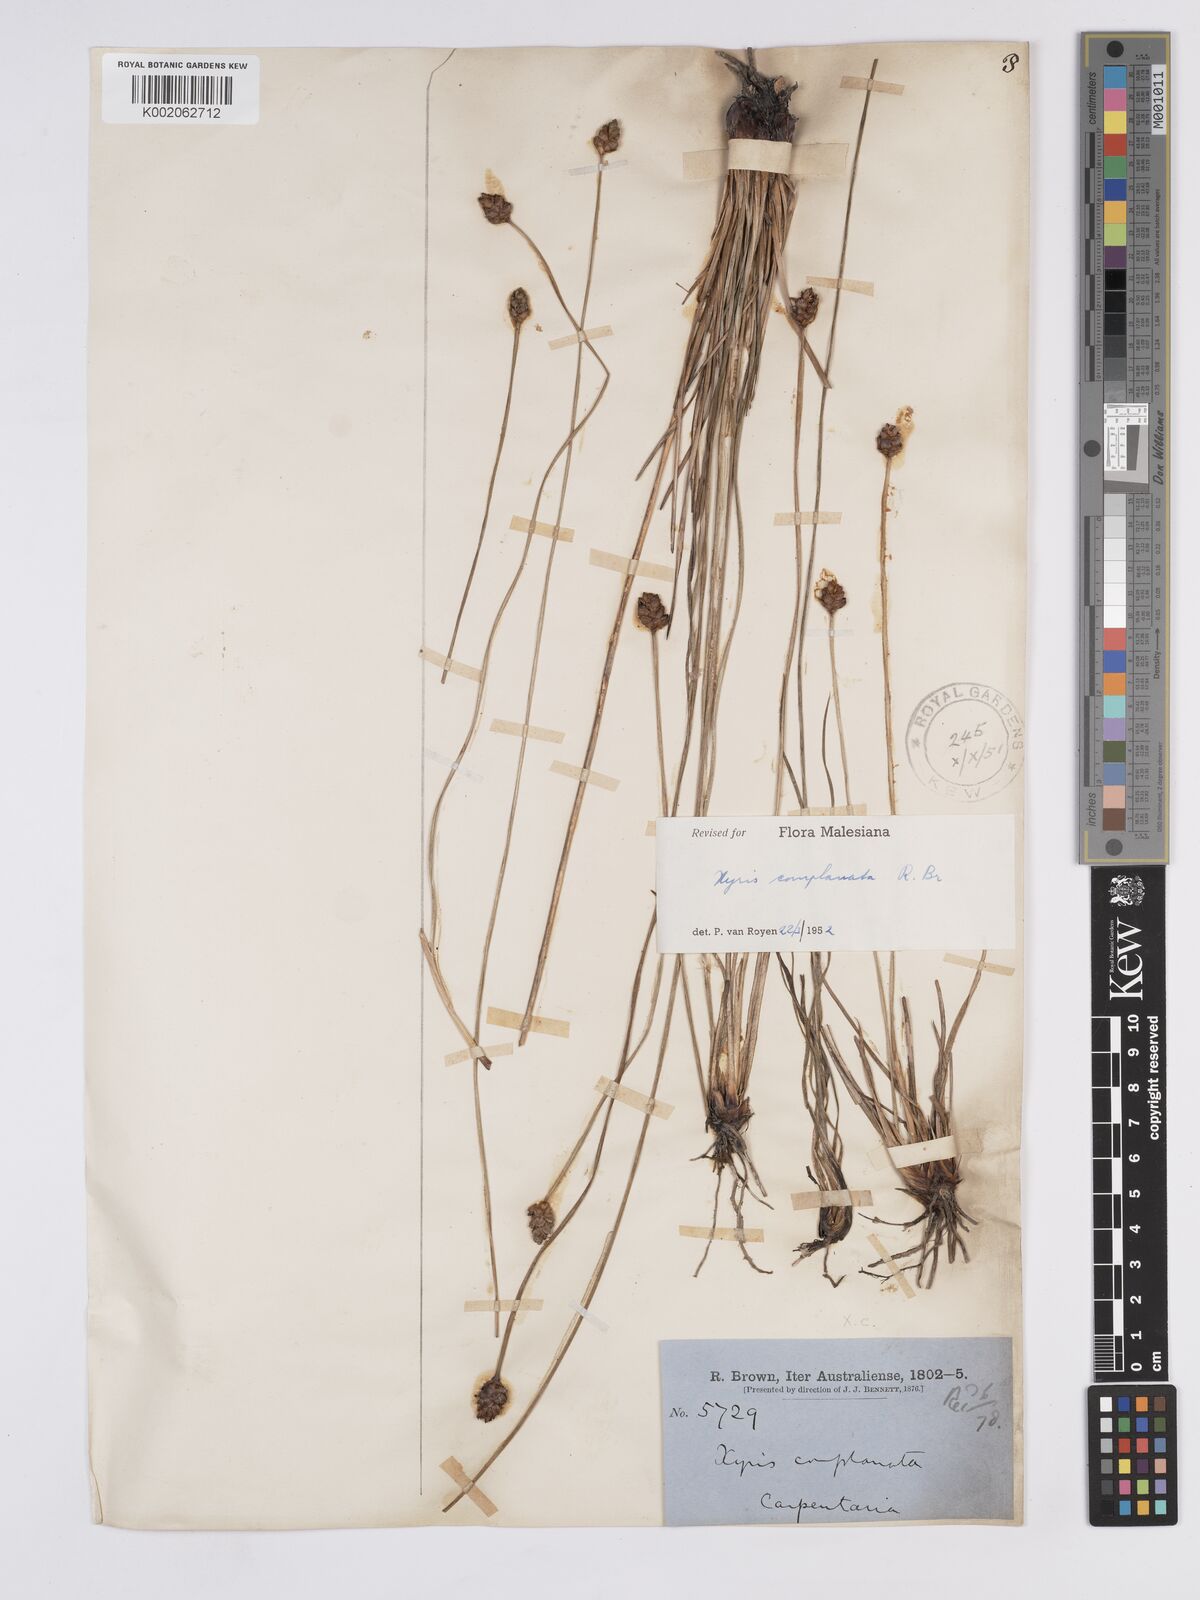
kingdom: Plantae
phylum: Tracheophyta
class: Liliopsida
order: Poales
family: Xyridaceae
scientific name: Xyridaceae
